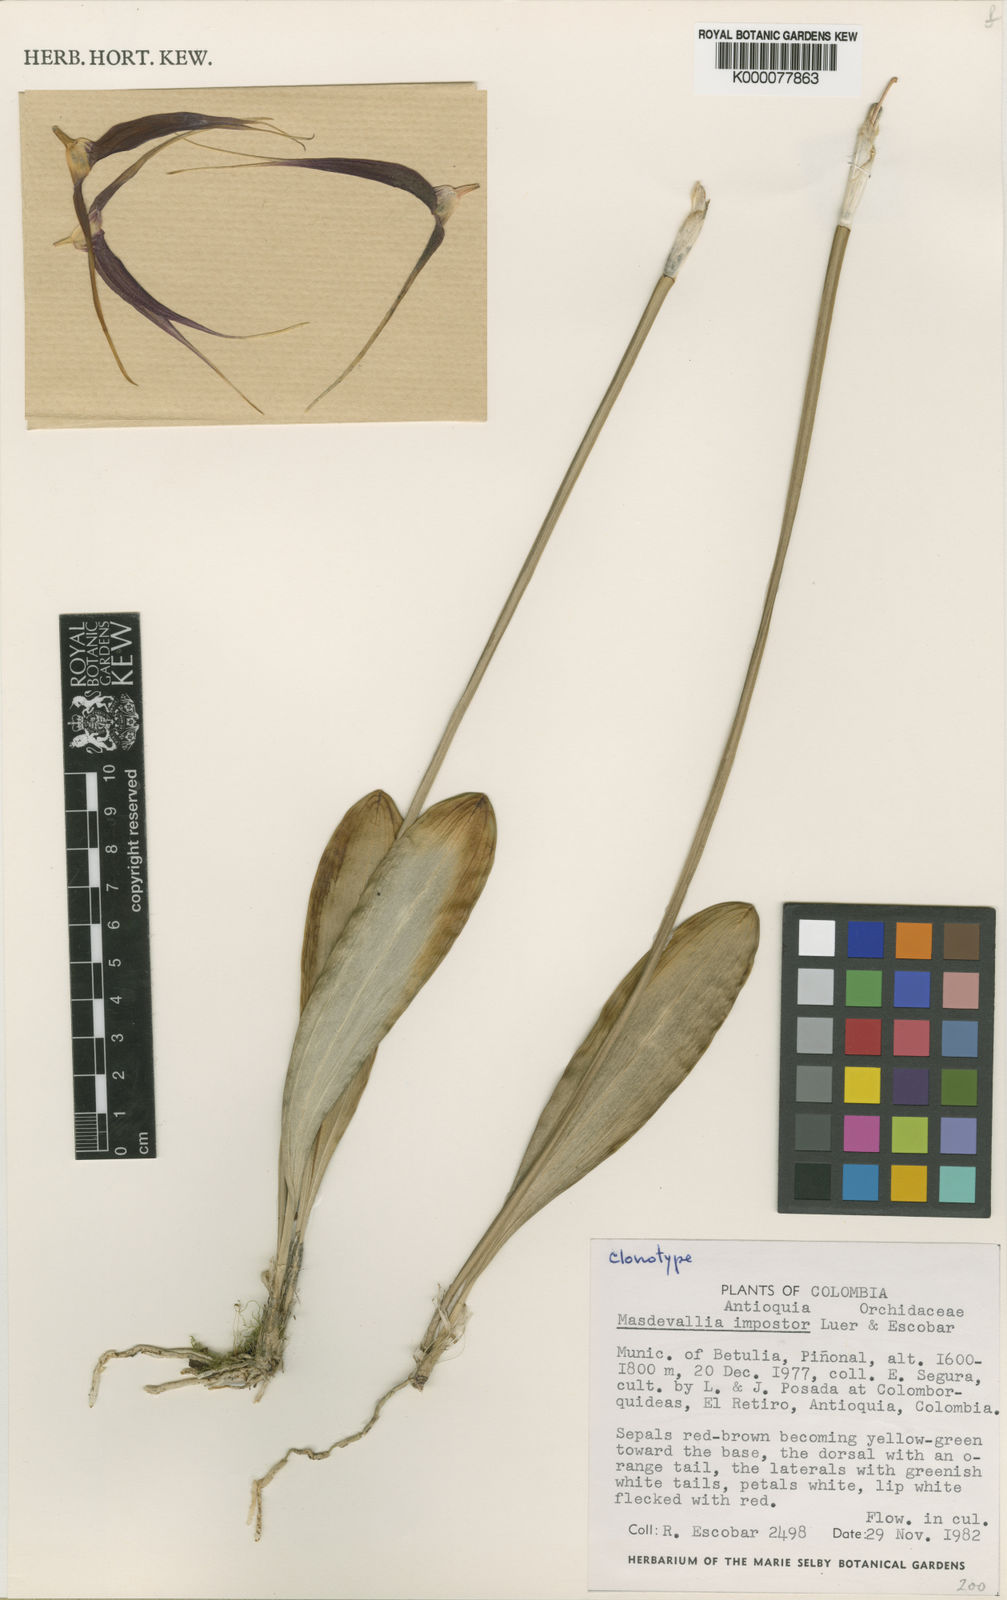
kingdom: Plantae
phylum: Tracheophyta
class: Liliopsida
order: Asparagales
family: Orchidaceae
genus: Masdevallia
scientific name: Masdevallia impostor
